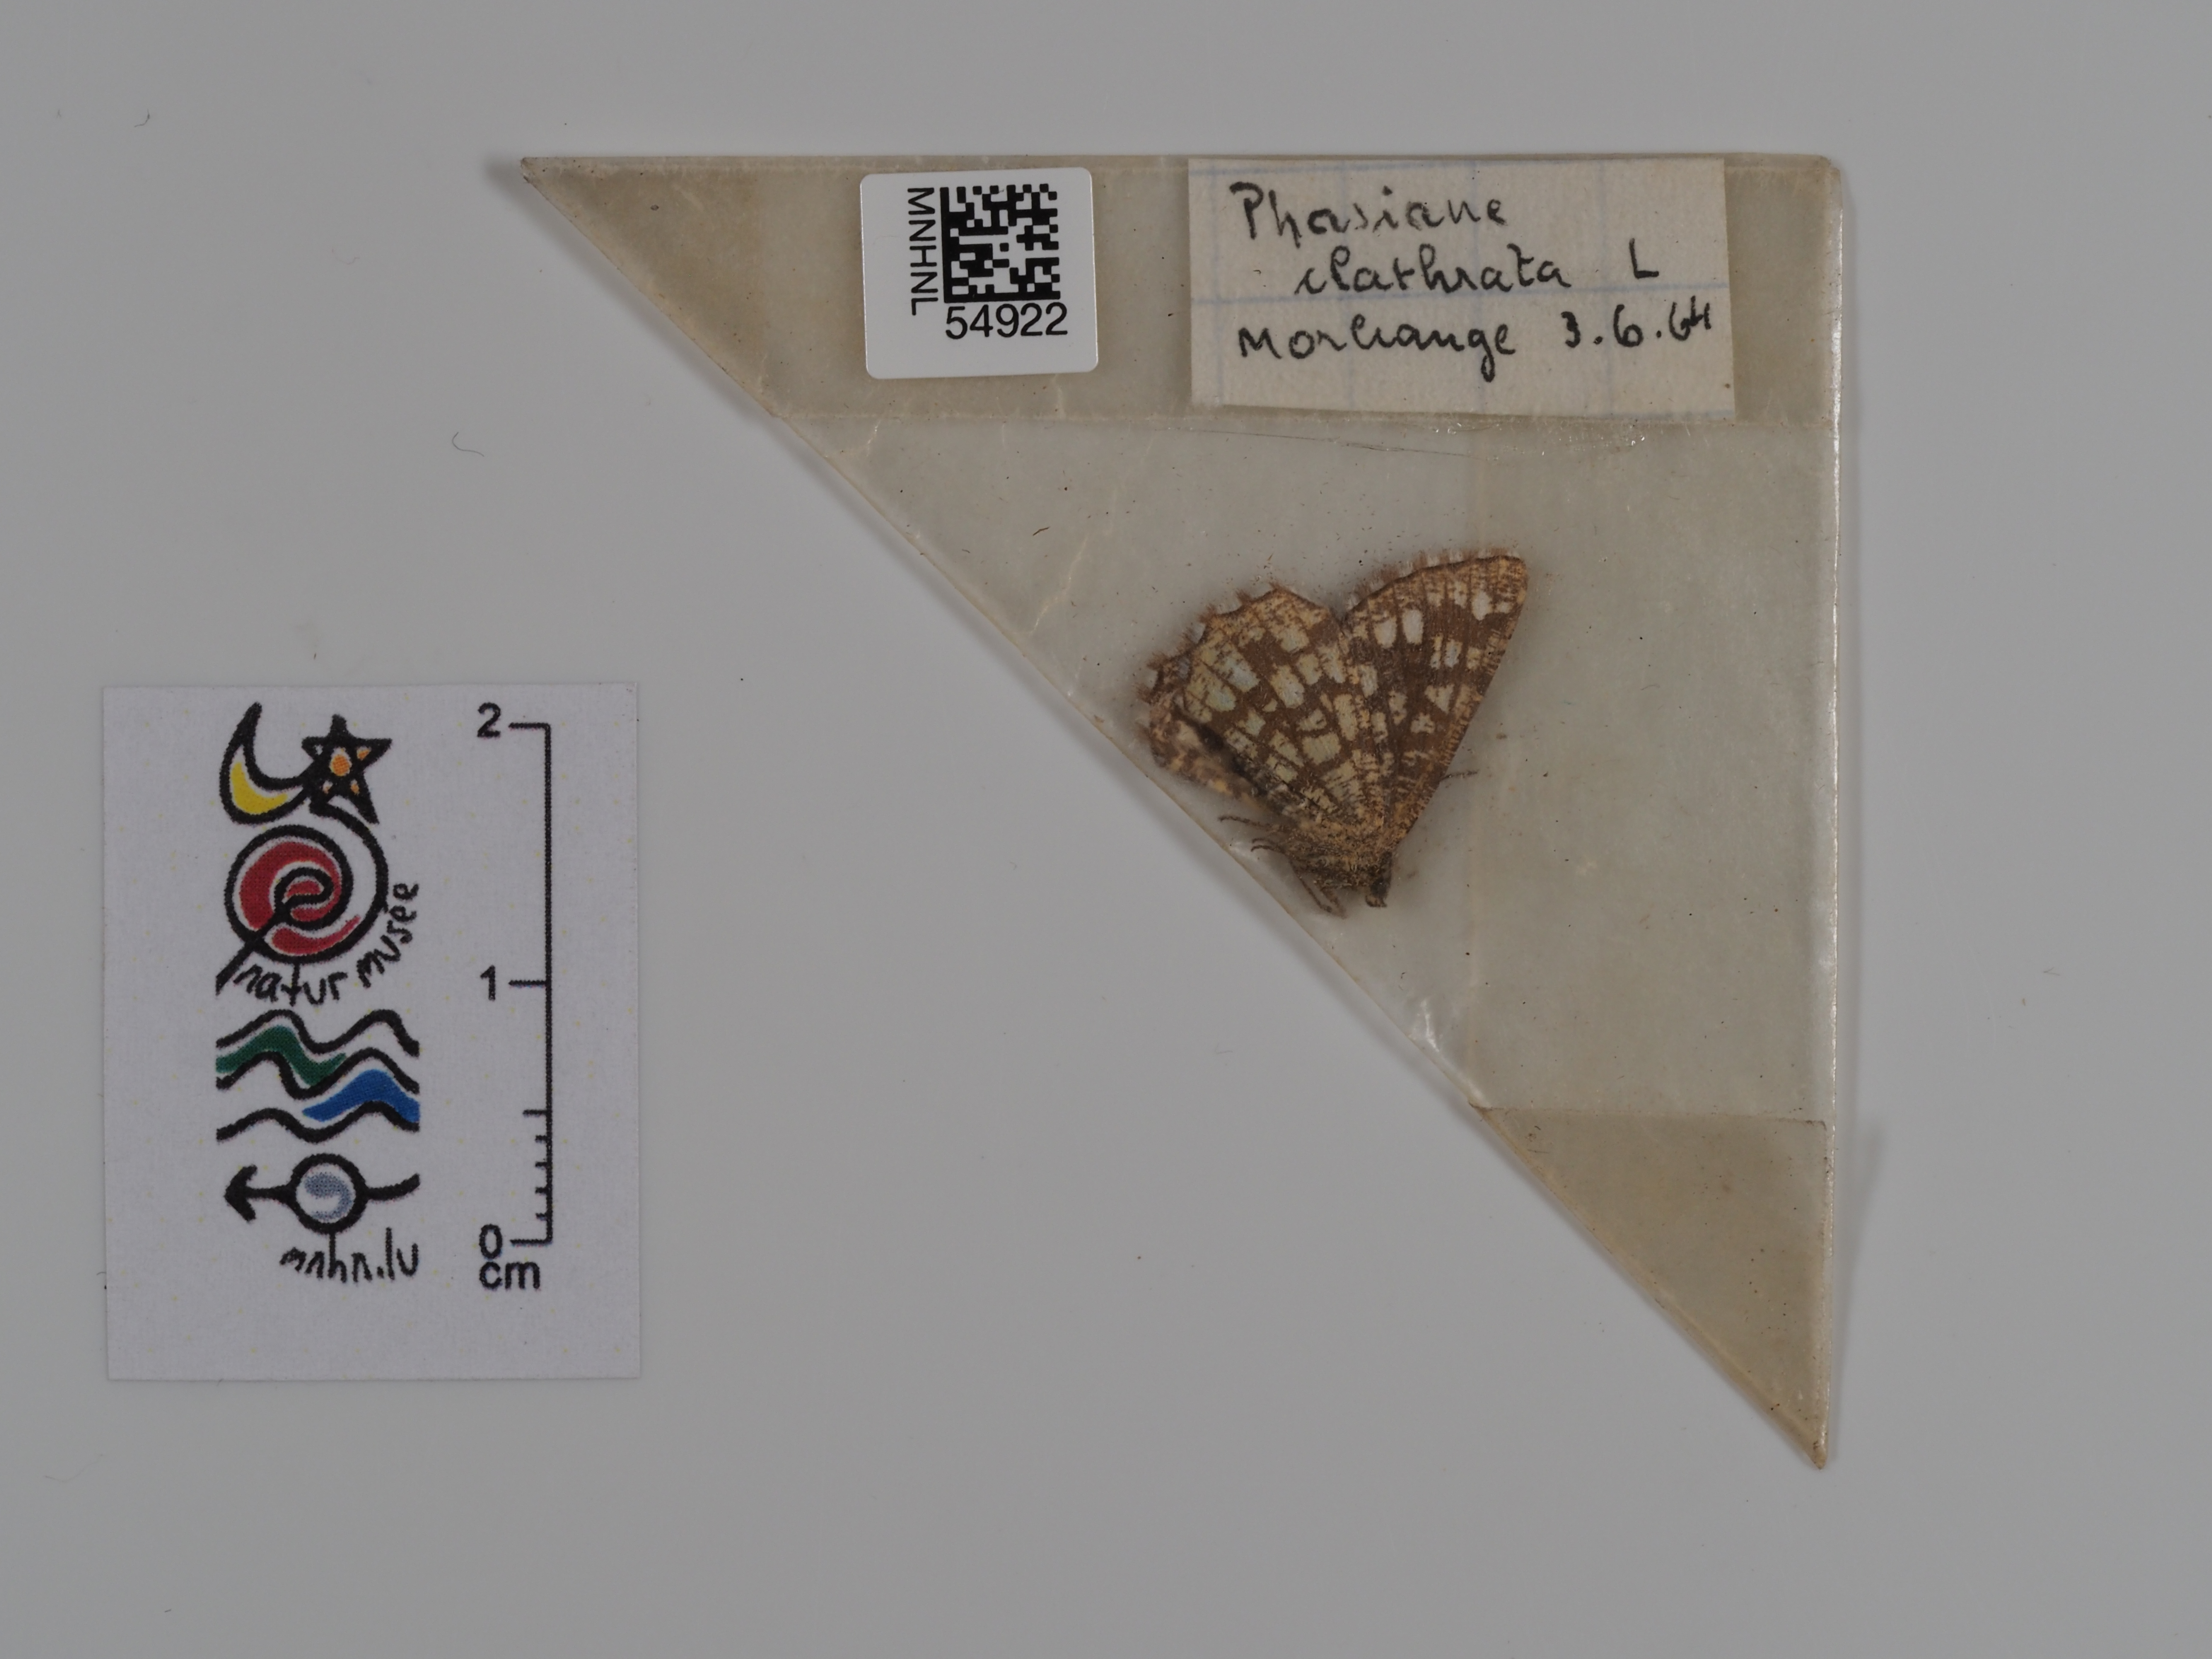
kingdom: Animalia
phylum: Arthropoda
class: Insecta
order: Lepidoptera
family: Geometridae
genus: Chiasmia
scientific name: Chiasmia clathrata
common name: Latticed heath
